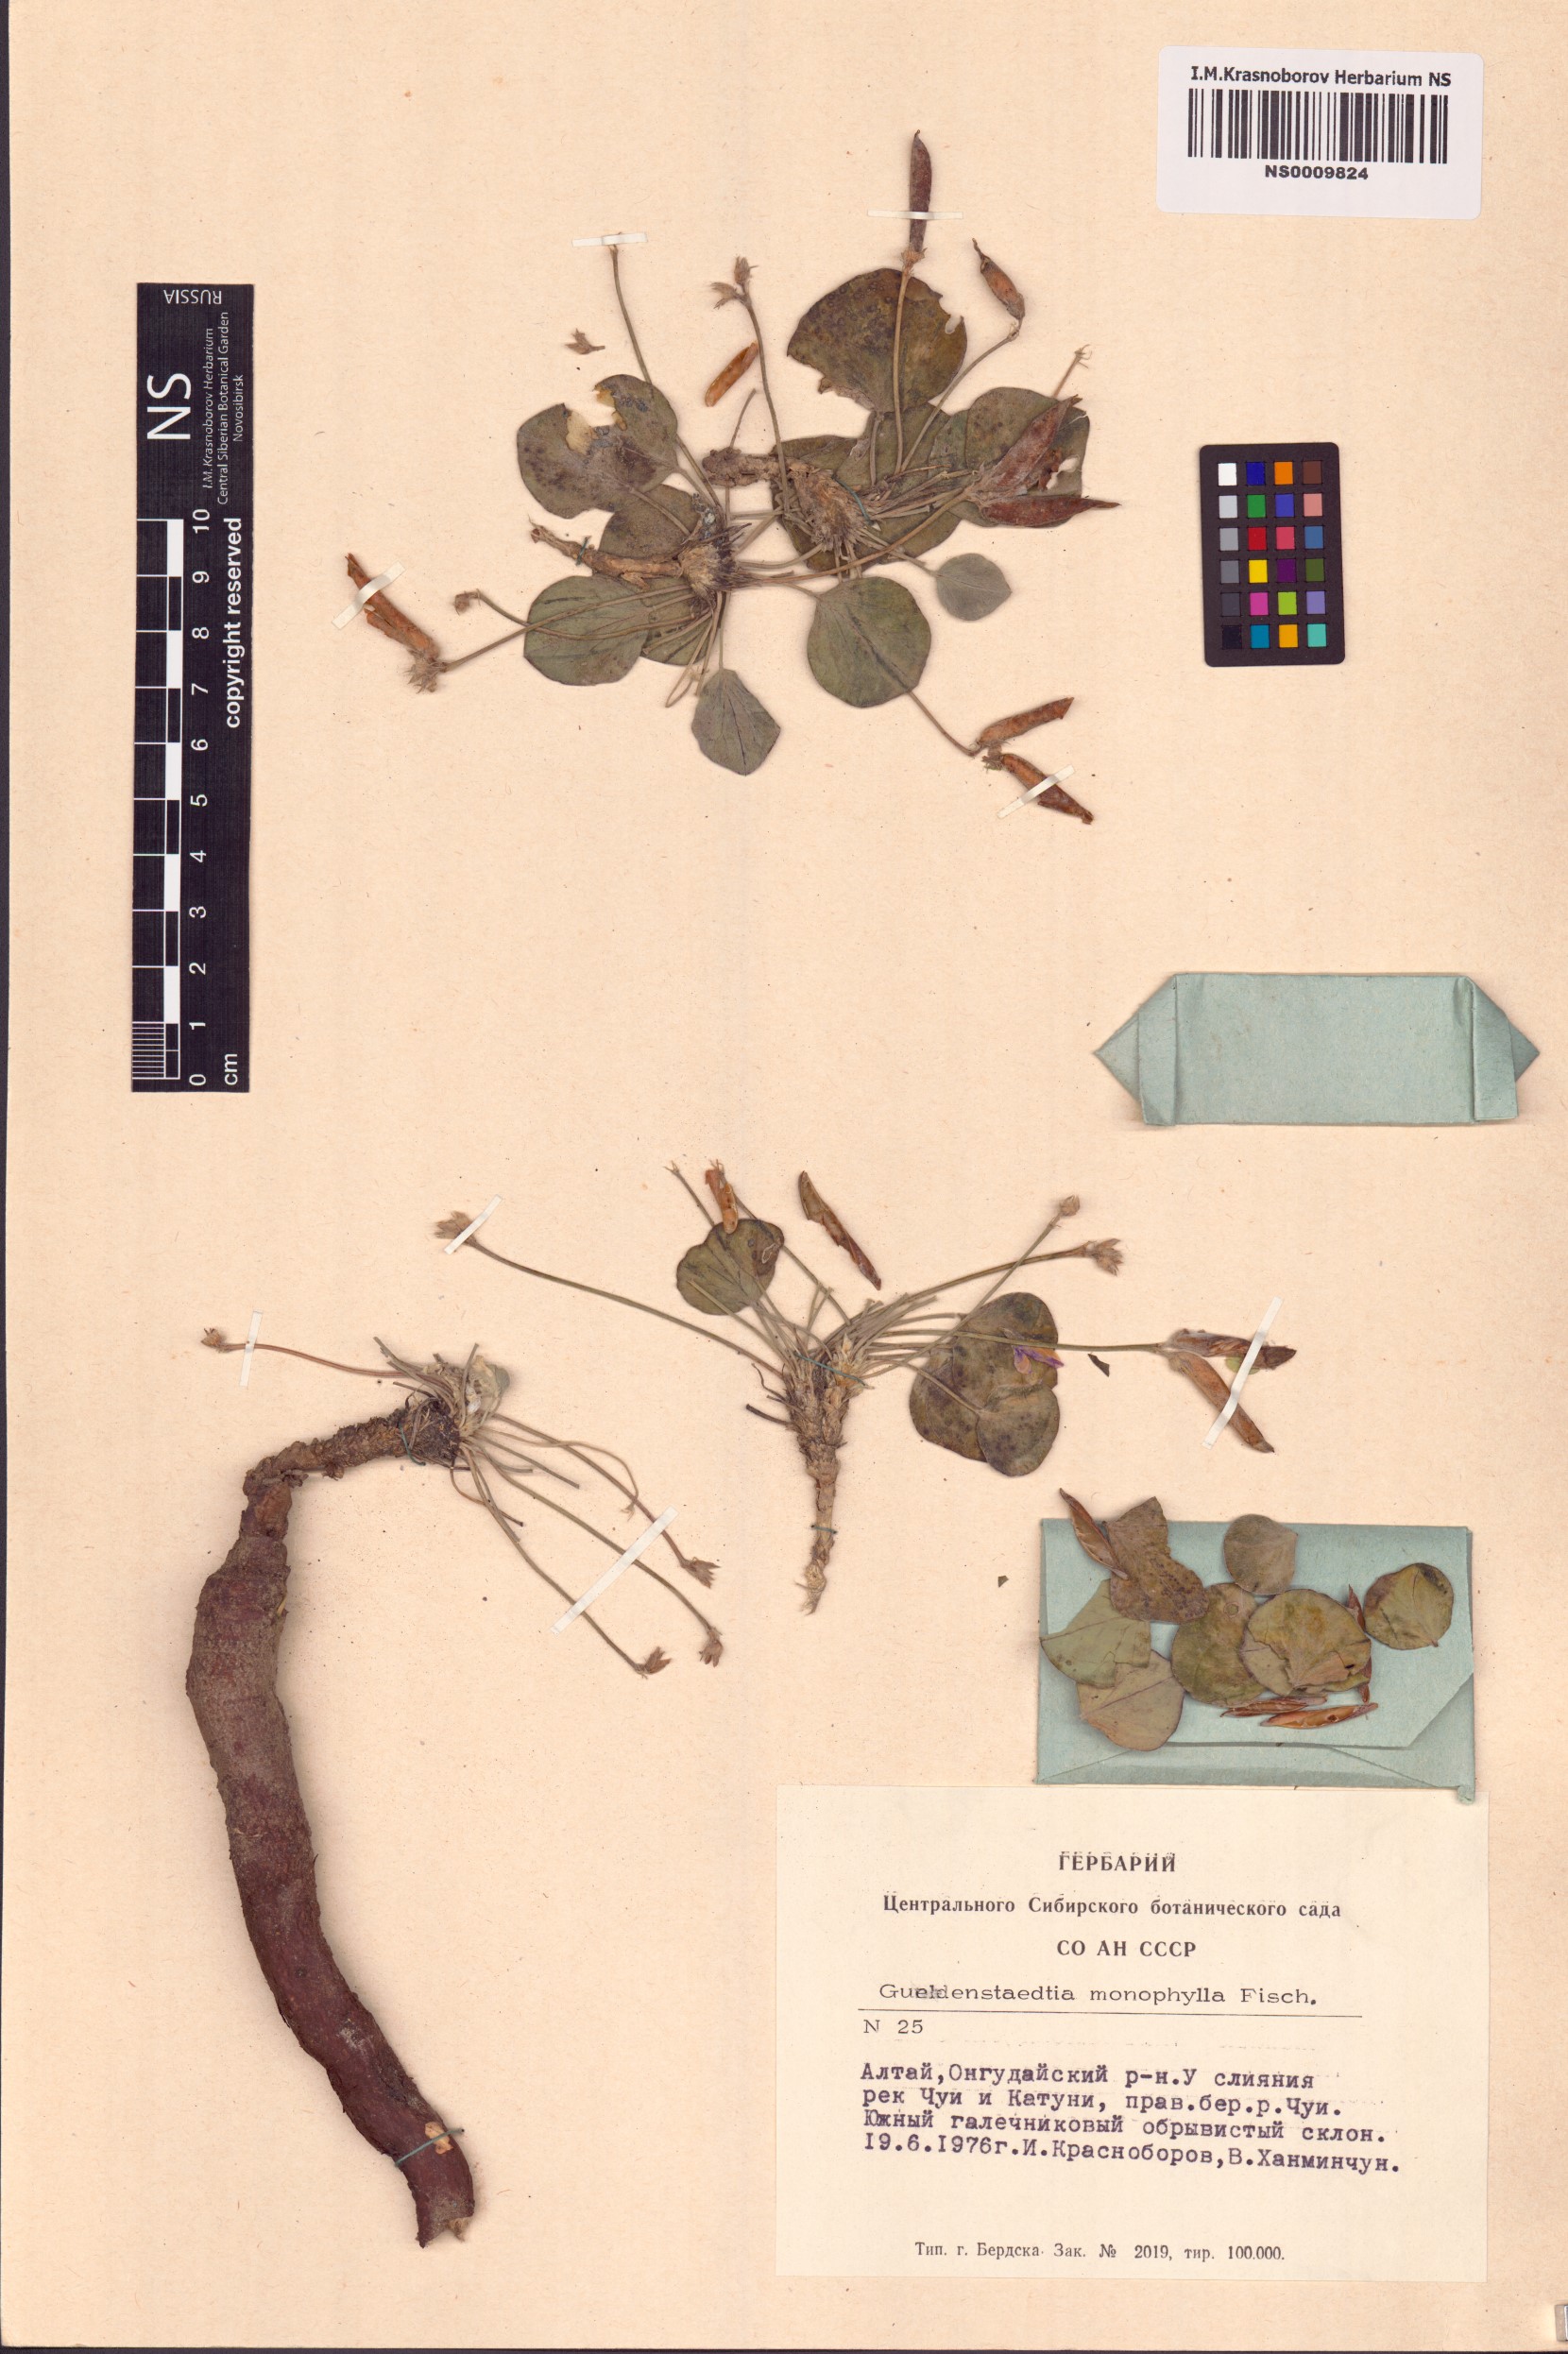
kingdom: Plantae
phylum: Tracheophyta
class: Magnoliopsida
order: Fabales
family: Fabaceae
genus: Gueldenstaedtia
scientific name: Gueldenstaedtia monophylla
